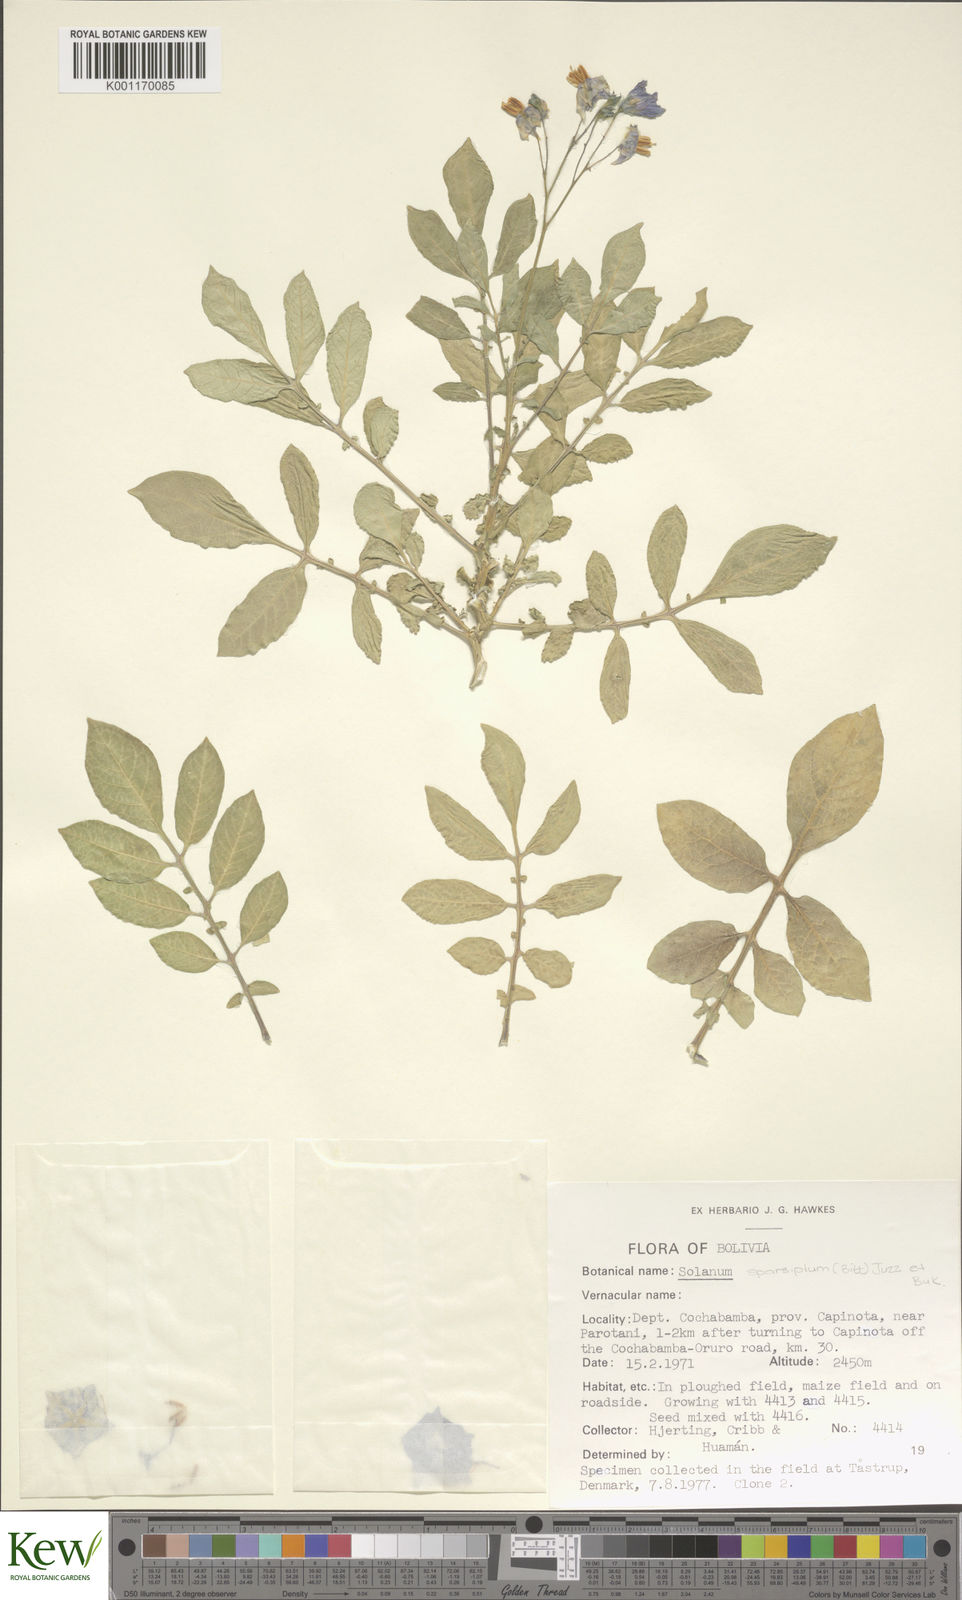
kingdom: Plantae
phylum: Tracheophyta
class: Magnoliopsida
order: Solanales
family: Solanaceae
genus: Solanum
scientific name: Solanum brevicaule
